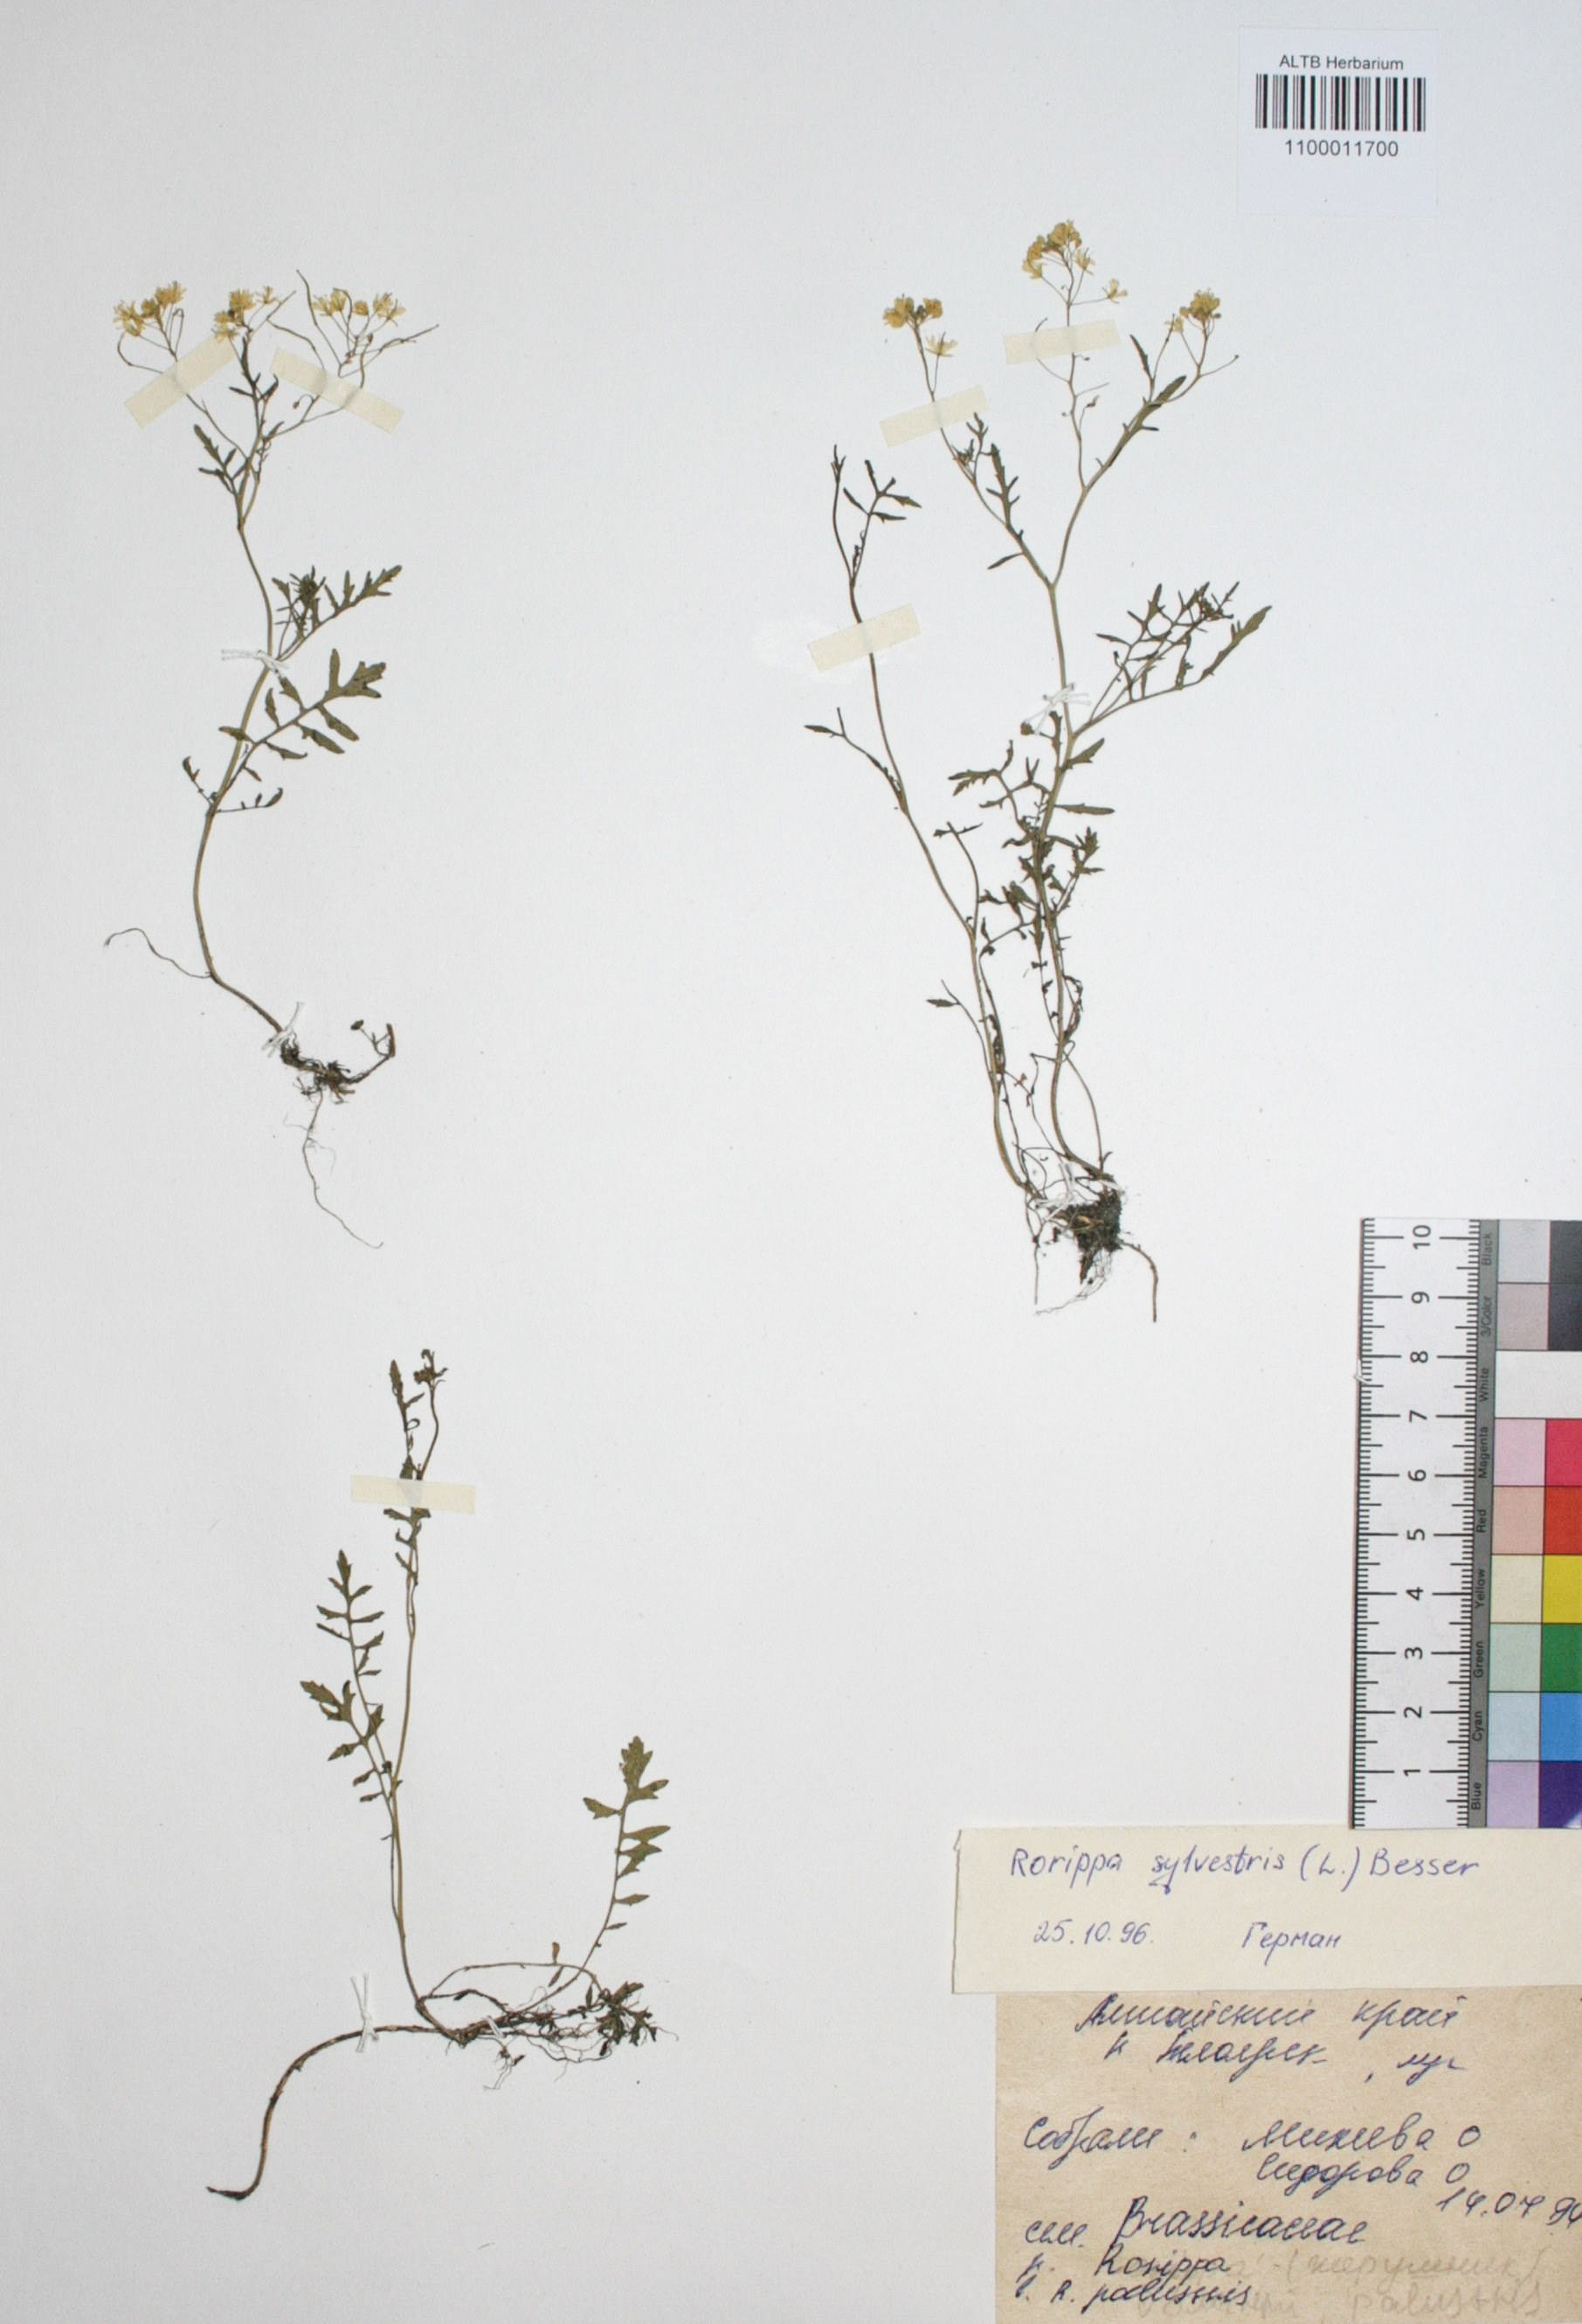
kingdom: Plantae
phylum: Tracheophyta
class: Magnoliopsida
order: Brassicales
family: Brassicaceae
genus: Rorippa
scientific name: Rorippa sylvestris
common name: Creeping yellowcress
